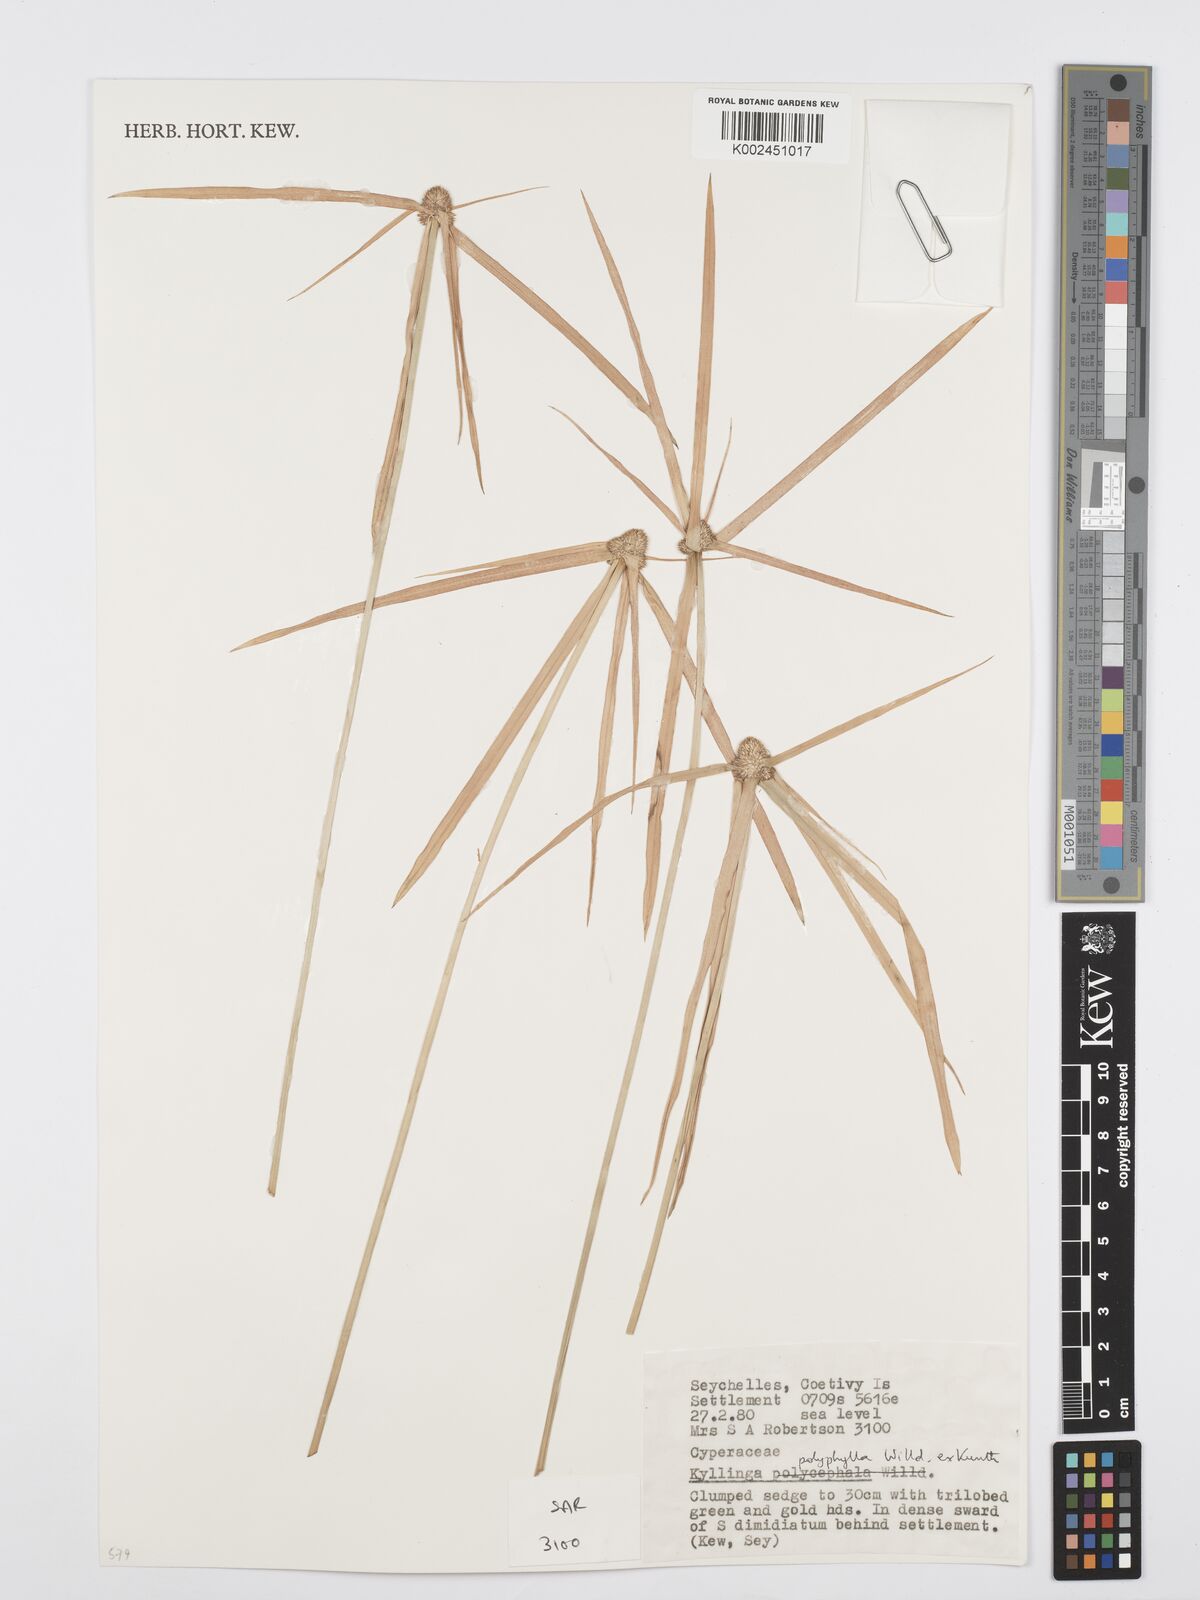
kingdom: Plantae
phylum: Tracheophyta
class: Liliopsida
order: Poales
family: Cyperaceae
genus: Cyperus
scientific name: Cyperus bulbosus
